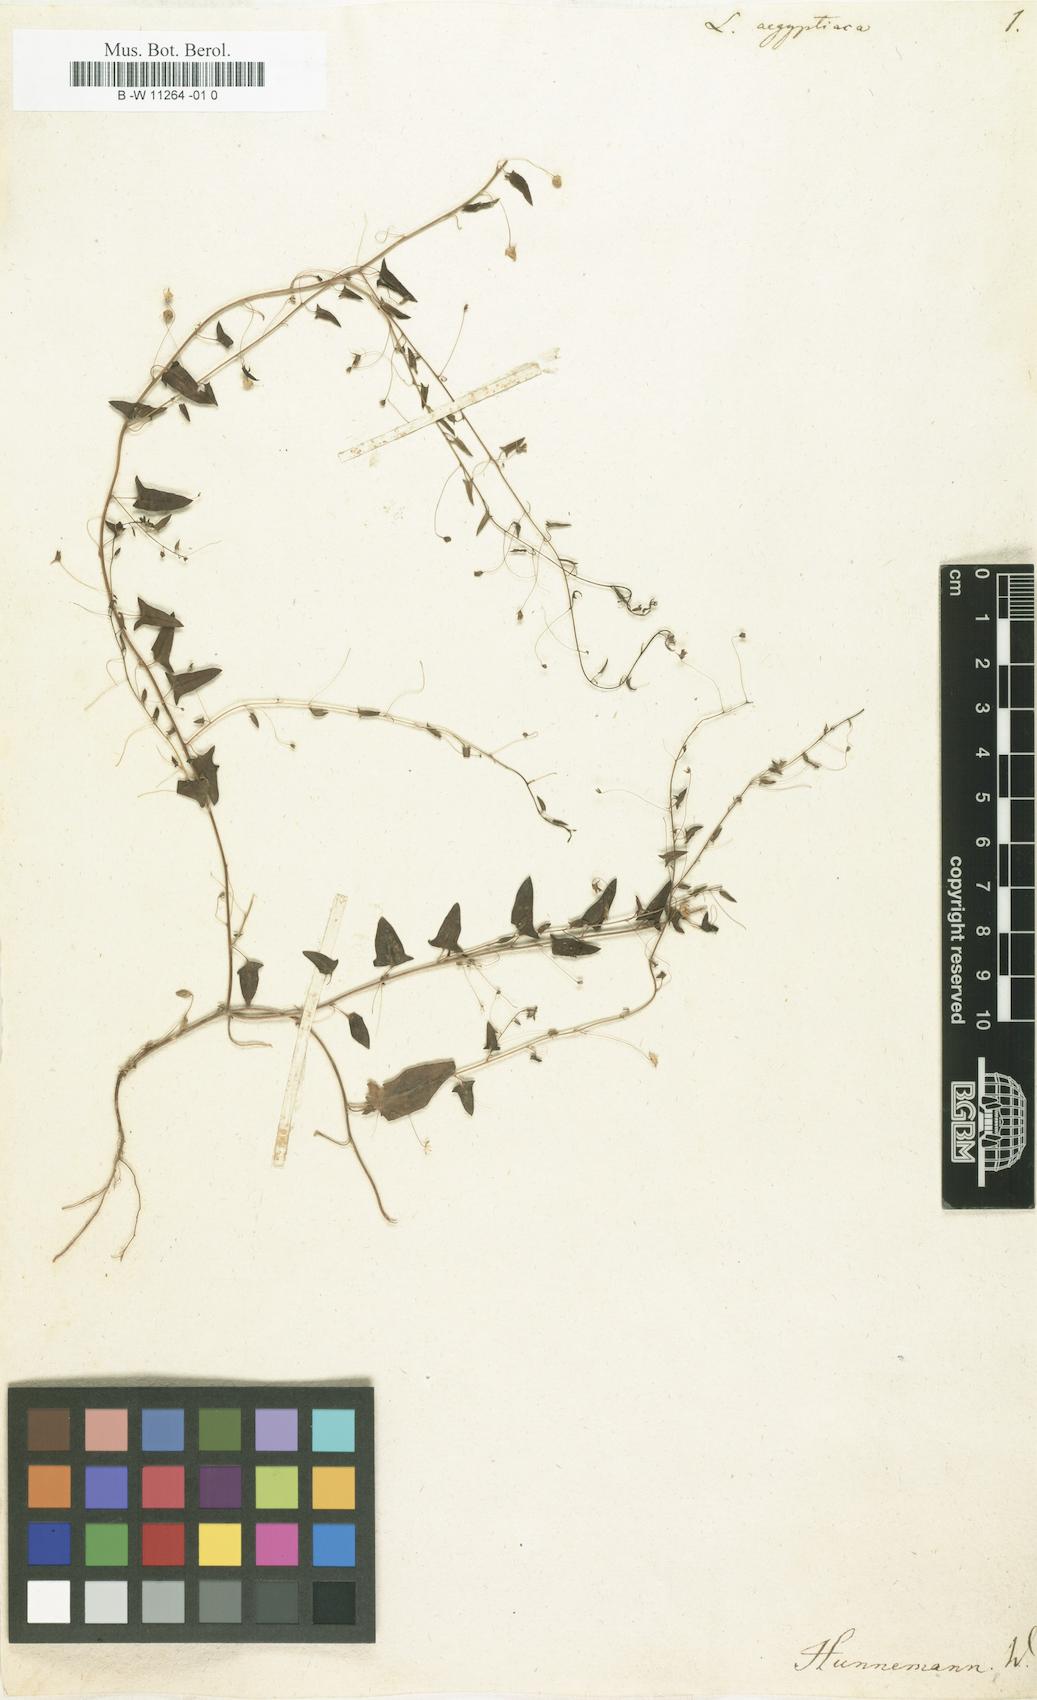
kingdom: Plantae
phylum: Tracheophyta
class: Magnoliopsida
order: Lamiales
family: Plantaginaceae
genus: Kickxia
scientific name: Kickxia aegyptiaca
